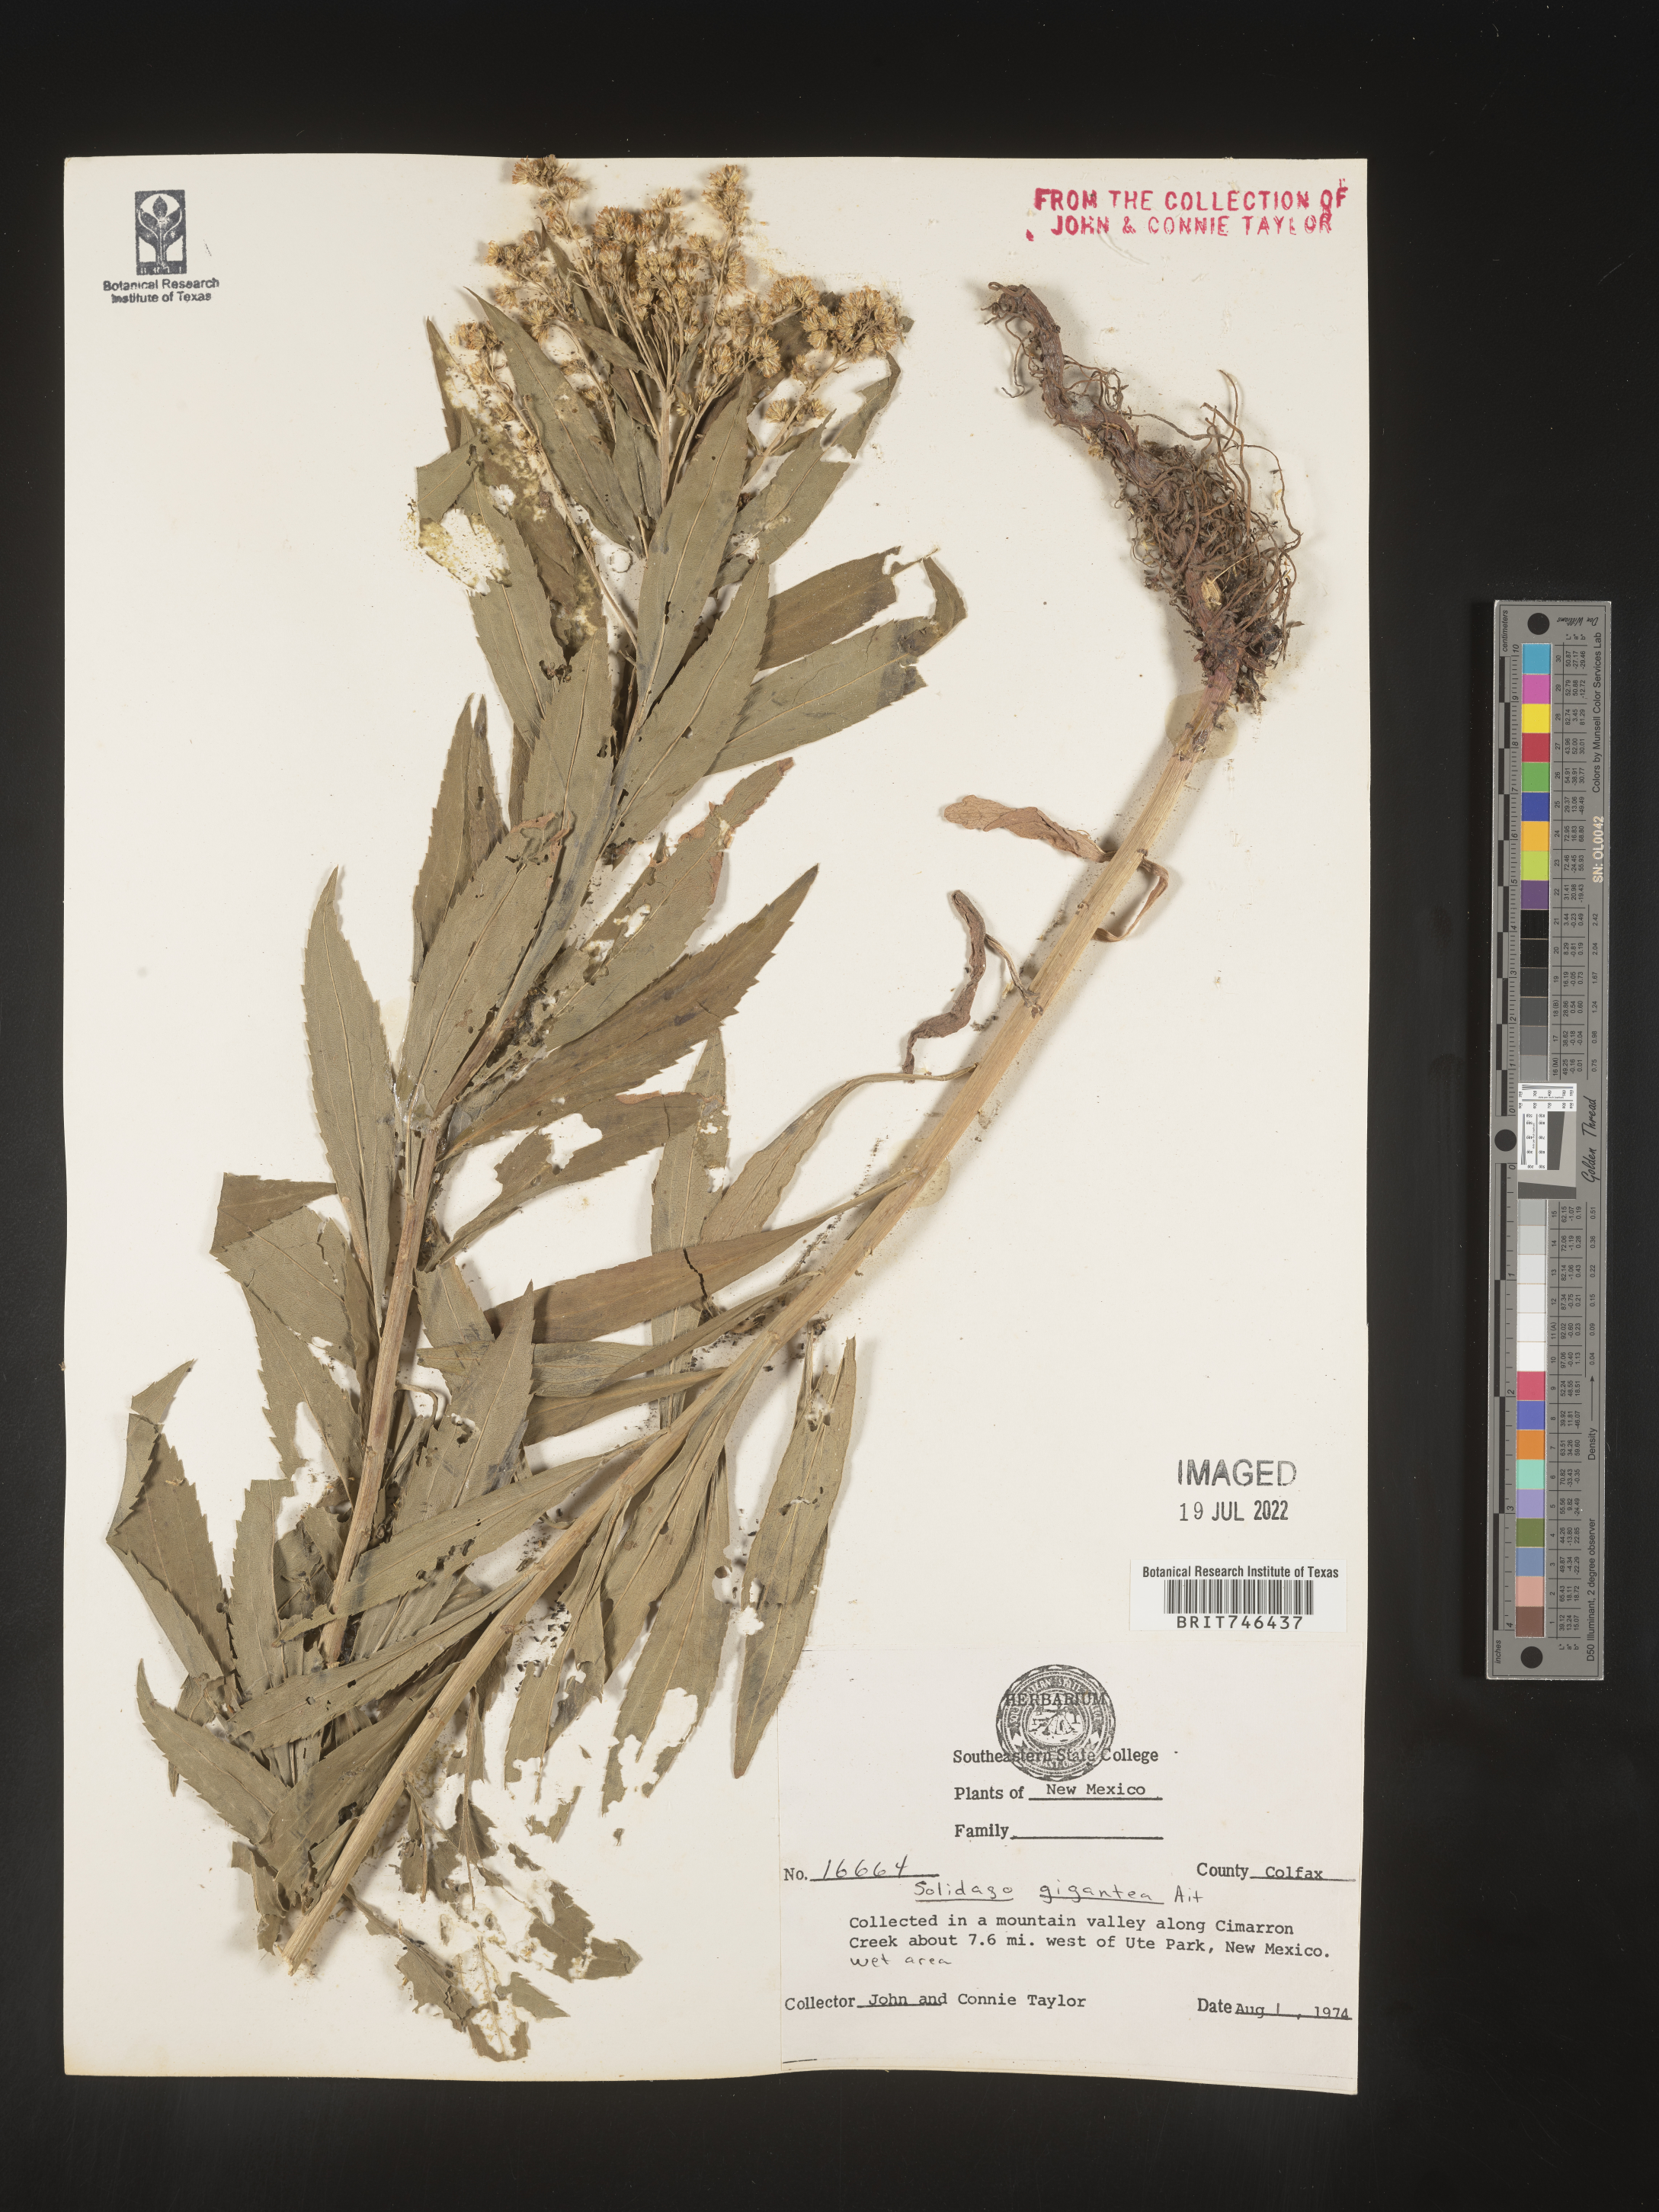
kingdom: Plantae
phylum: Tracheophyta
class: Magnoliopsida
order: Asterales
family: Asteraceae
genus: Solidago
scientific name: Solidago gigantea
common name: Giant goldenrod
